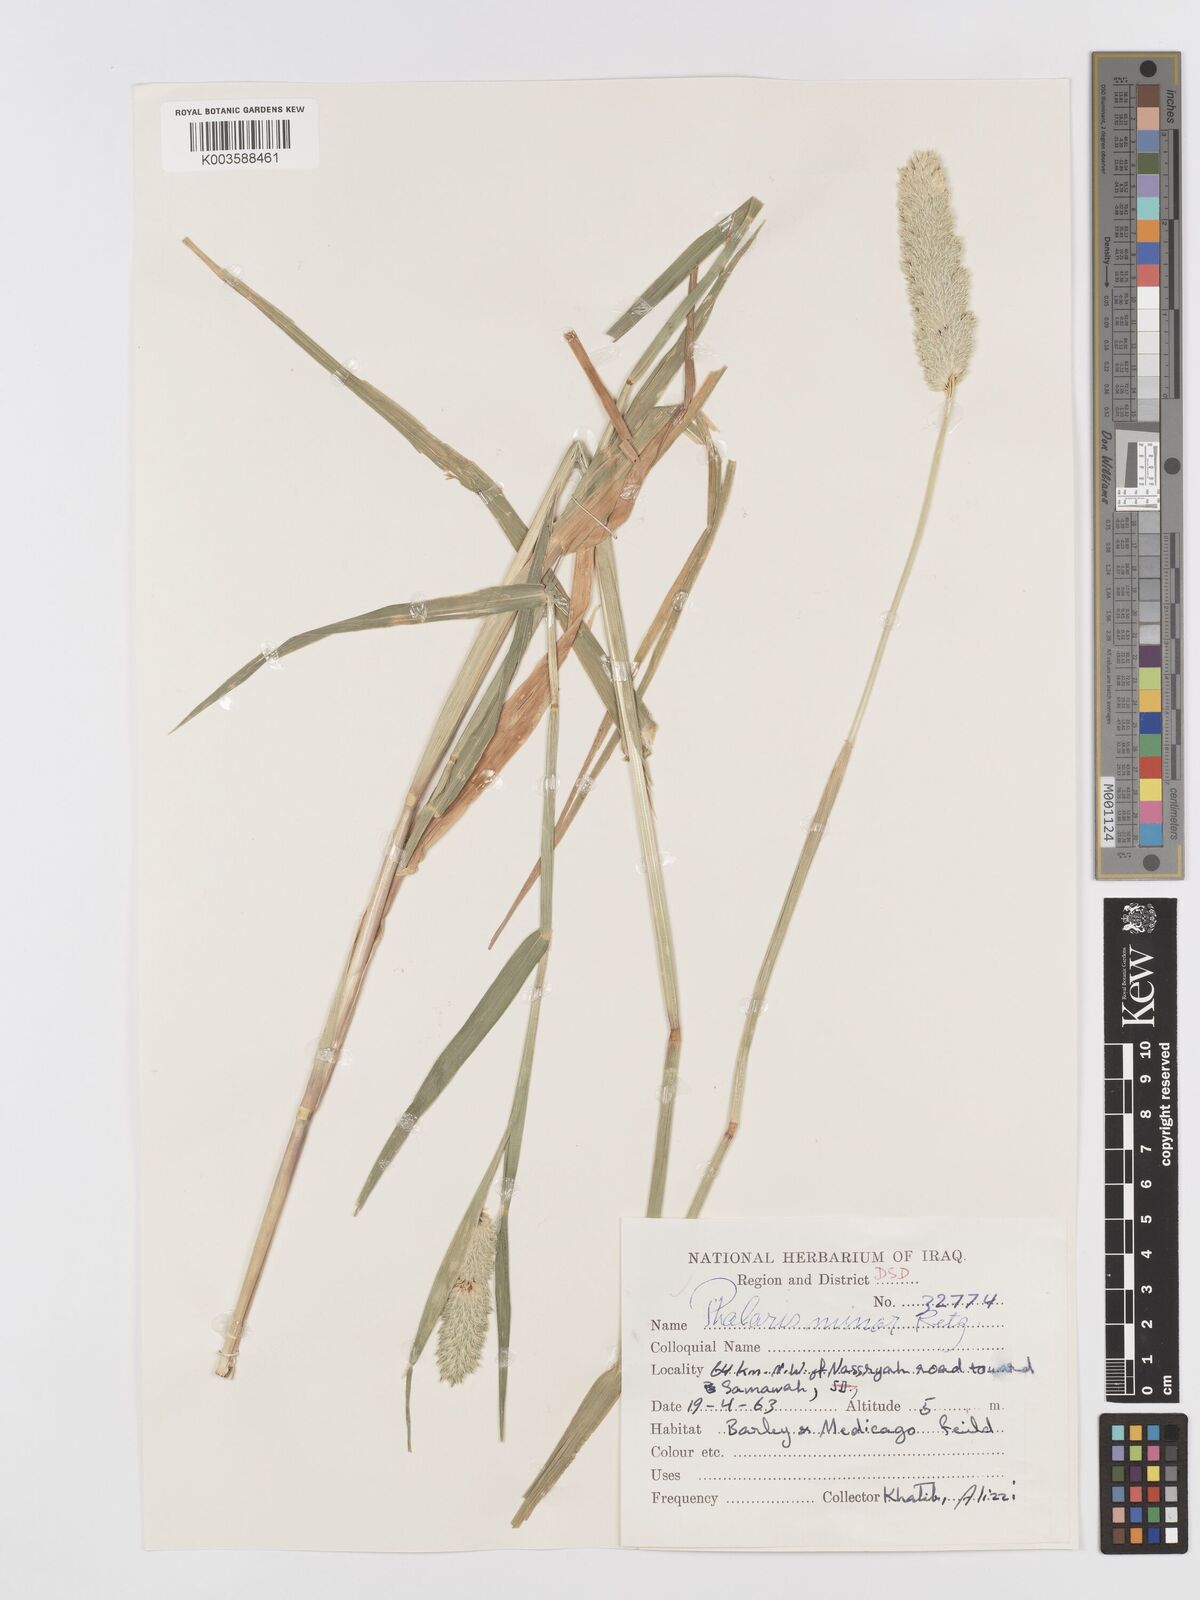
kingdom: Plantae
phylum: Tracheophyta
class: Liliopsida
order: Poales
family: Poaceae
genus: Phalaris
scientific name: Phalaris minor
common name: Littleseed canarygrass
